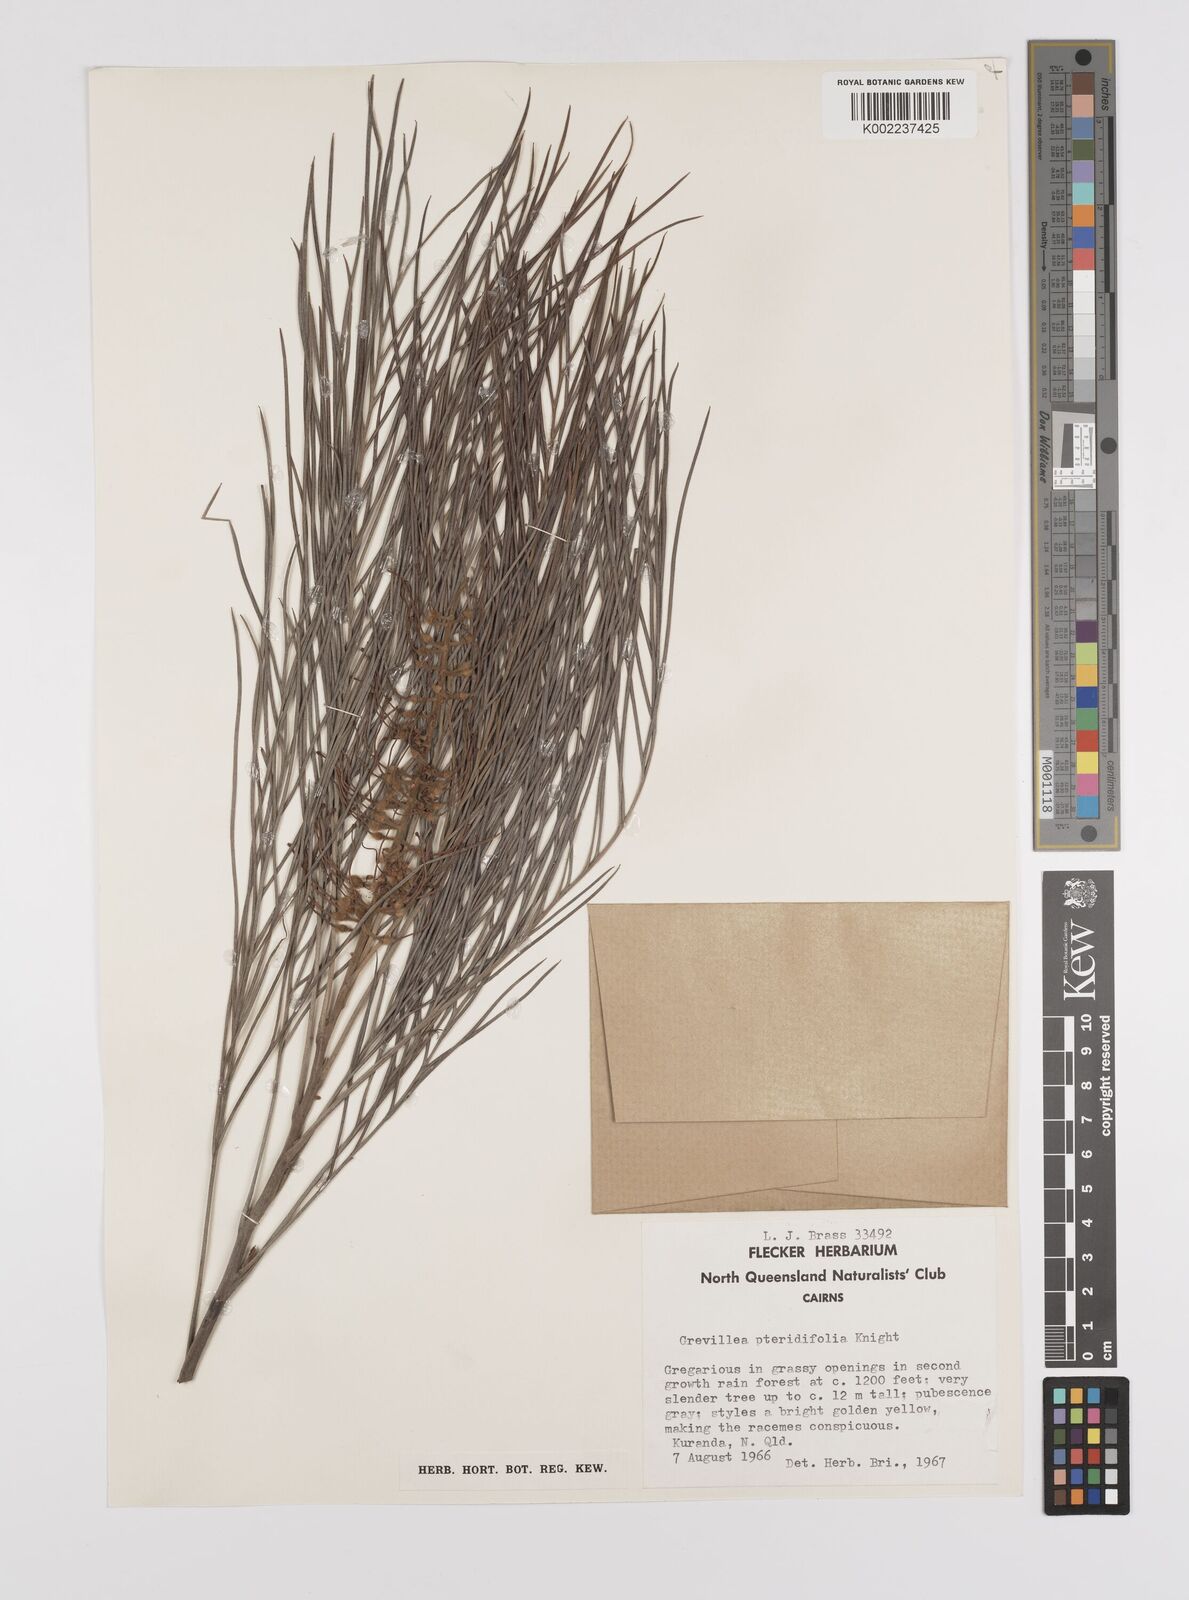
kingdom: Plantae
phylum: Tracheophyta
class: Magnoliopsida
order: Proteales
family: Proteaceae
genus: Grevillea
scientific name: Grevillea pteridifolia
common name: Golden grevillea
